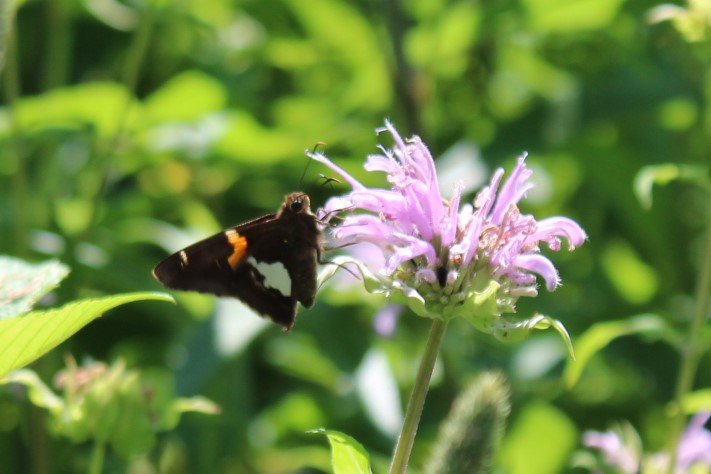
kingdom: Animalia
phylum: Arthropoda
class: Insecta
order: Lepidoptera
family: Hesperiidae
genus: Epargyreus
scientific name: Epargyreus clarus
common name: Silver-spotted Skipper
